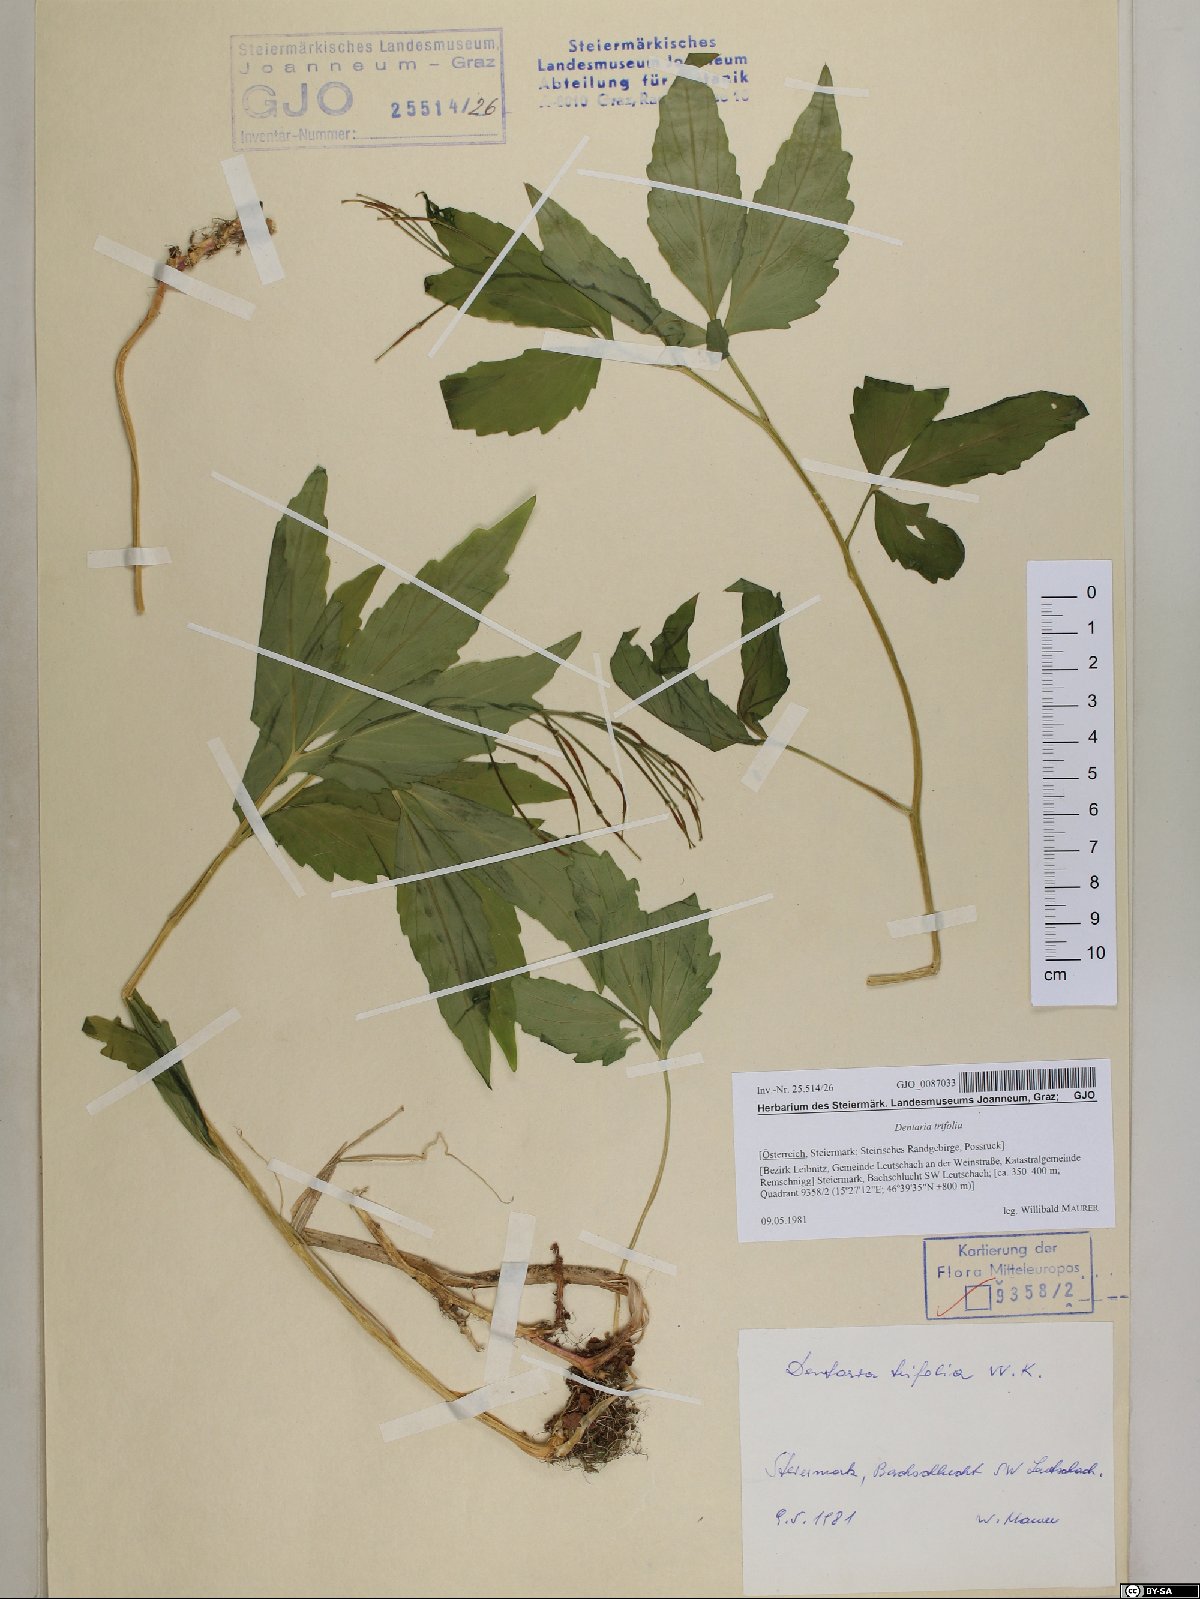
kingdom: Plantae
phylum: Tracheophyta
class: Magnoliopsida
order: Brassicales
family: Brassicaceae
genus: Cardamine
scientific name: Cardamine waldsteinii
